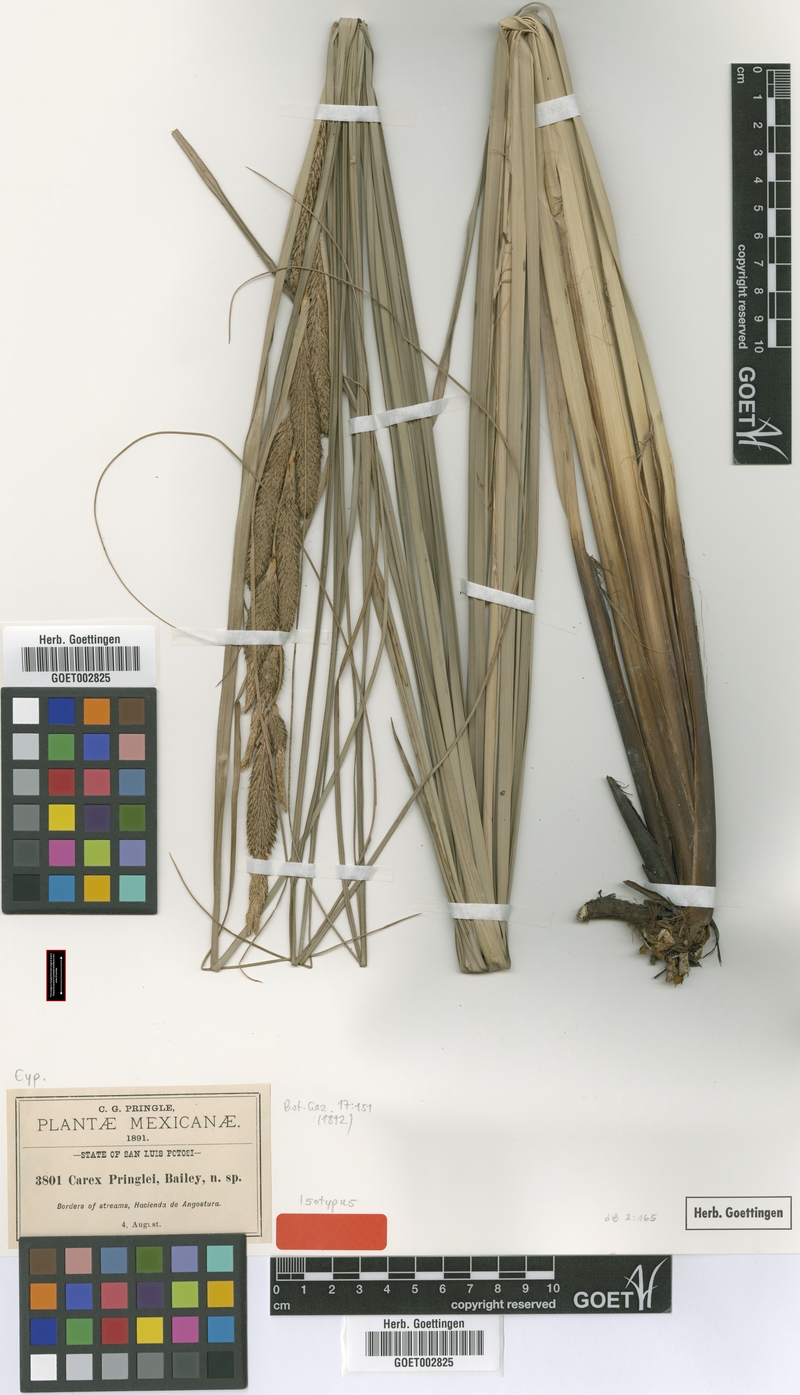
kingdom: Plantae
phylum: Tracheophyta
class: Liliopsida
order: Poales
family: Cyperaceae
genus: Carex
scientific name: Carex pringlei
